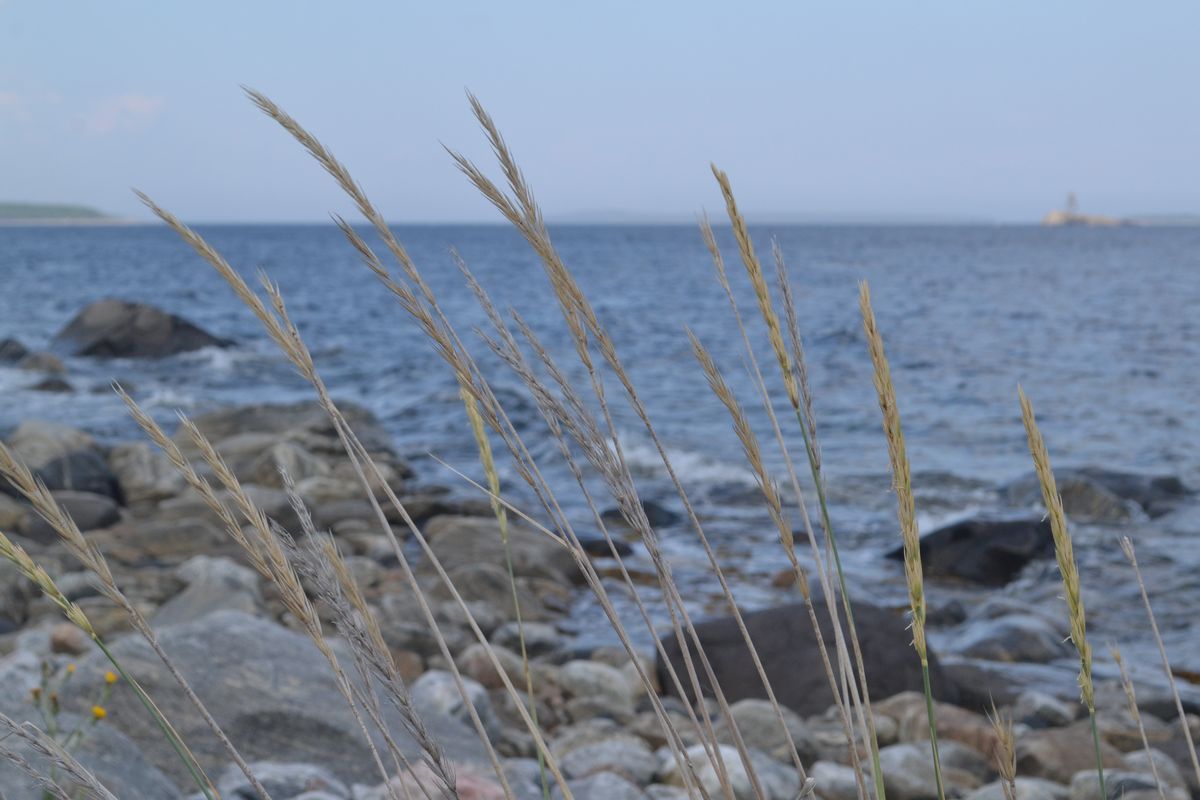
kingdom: Plantae
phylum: Tracheophyta
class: Liliopsida
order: Poales
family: Poaceae
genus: Leymus
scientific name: Leymus arenarius
